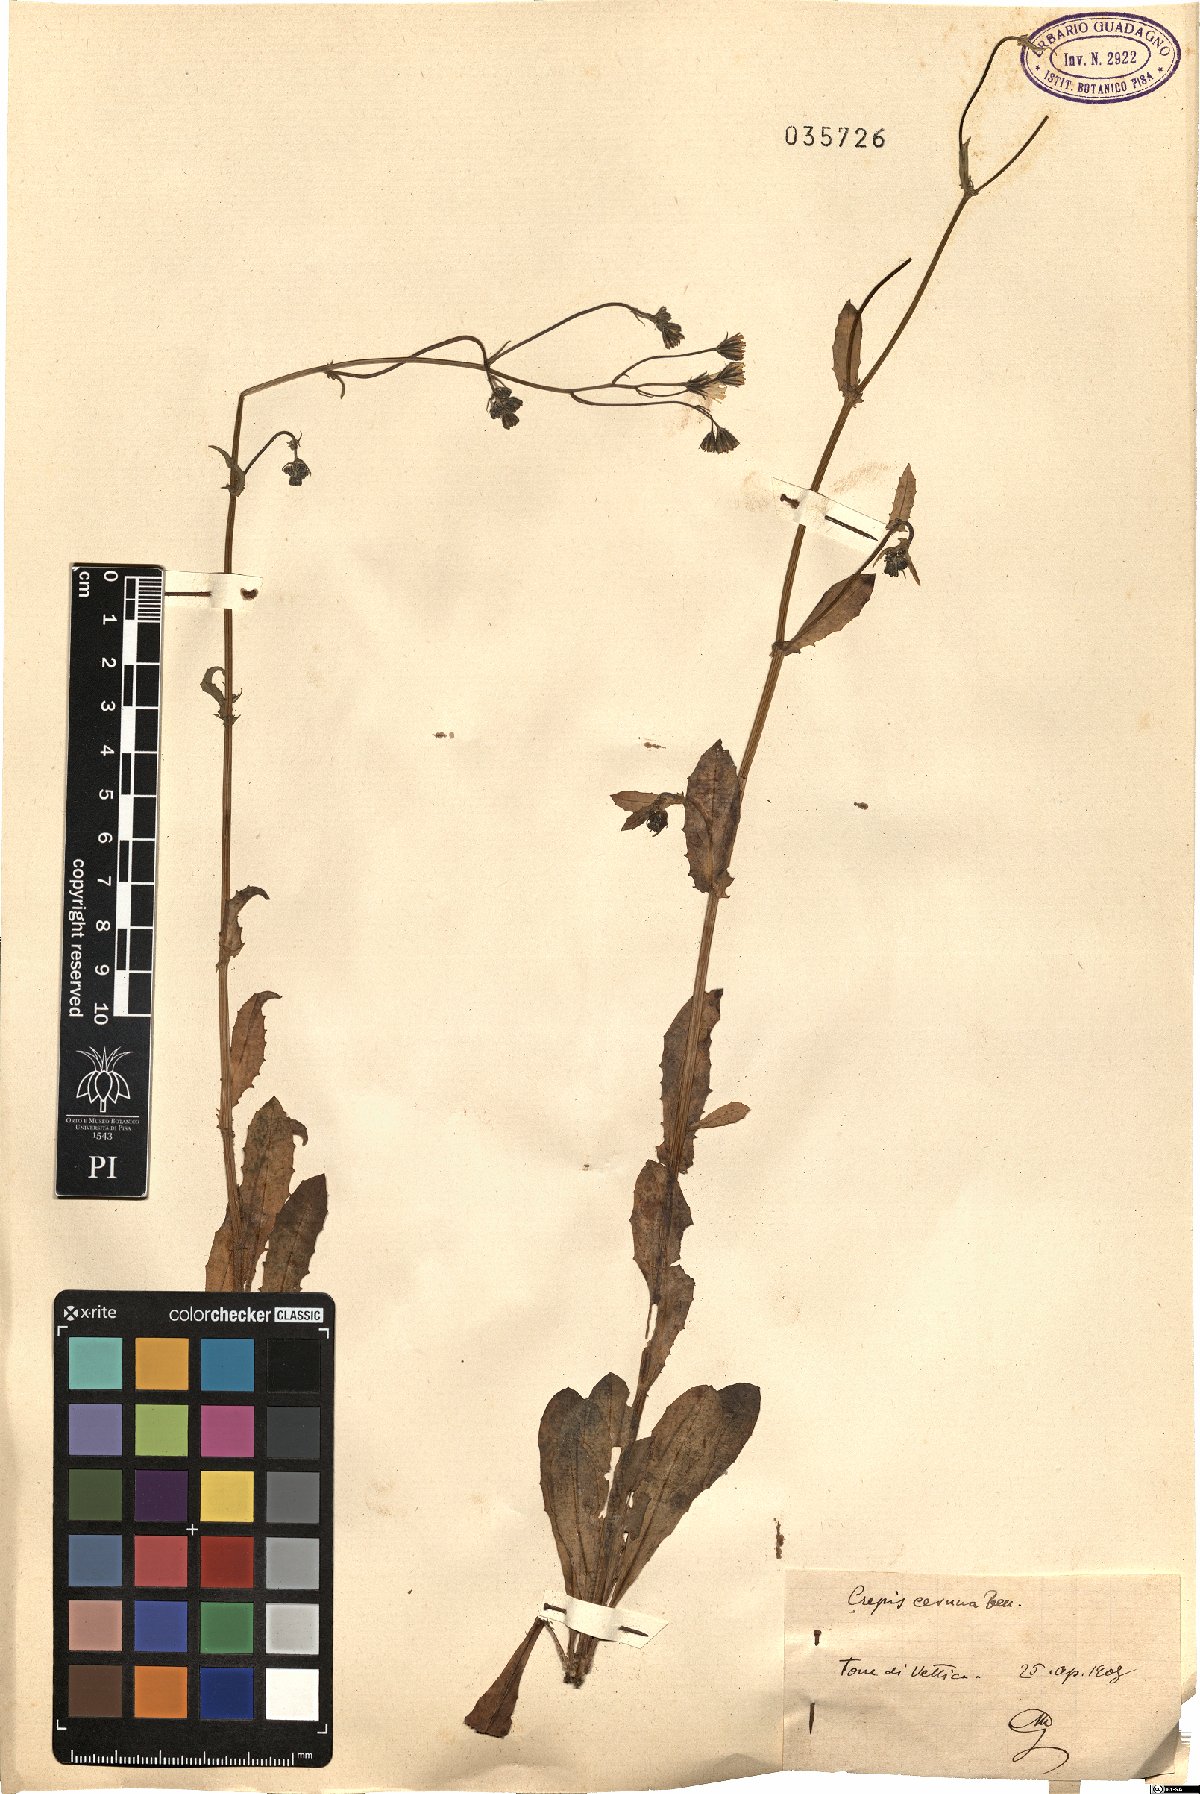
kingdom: Plantae
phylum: Tracheophyta
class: Magnoliopsida
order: Asterales
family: Asteraceae
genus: Crepis
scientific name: Crepis neglecta
